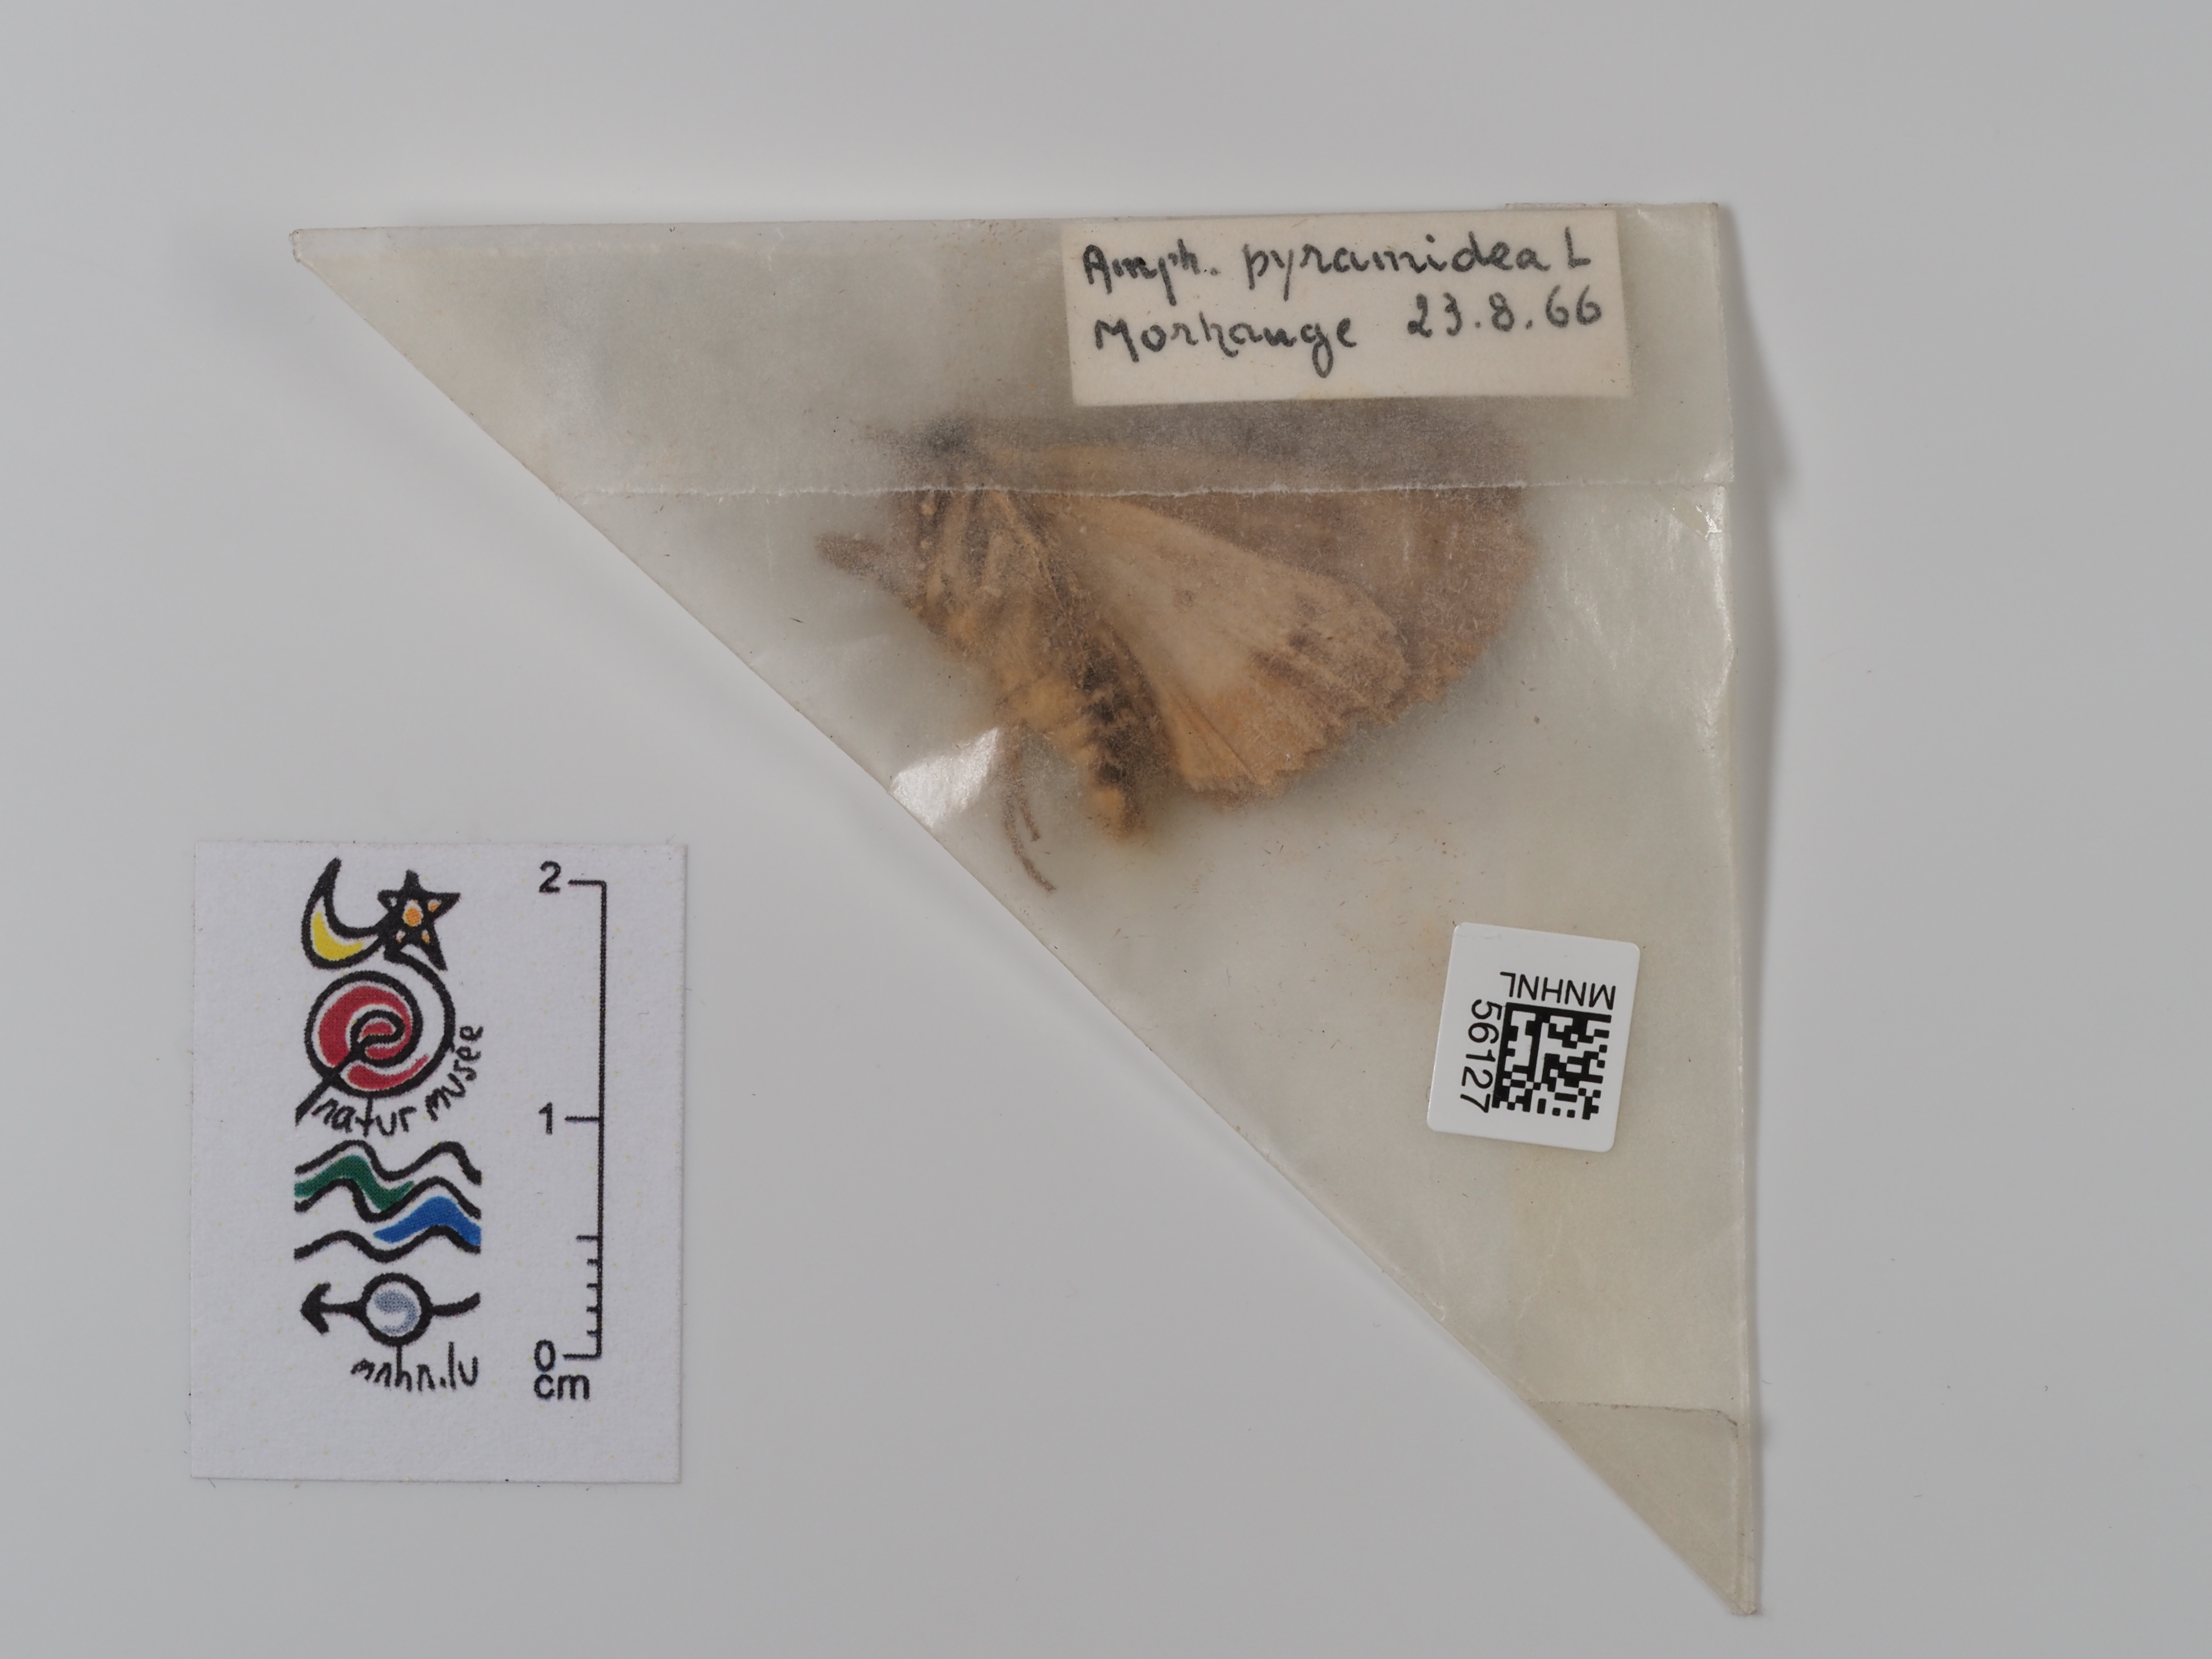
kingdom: Animalia
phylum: Arthropoda
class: Insecta
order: Lepidoptera
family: Noctuidae
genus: Amphipyra
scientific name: Amphipyra pyramidea
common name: Copper underwing
